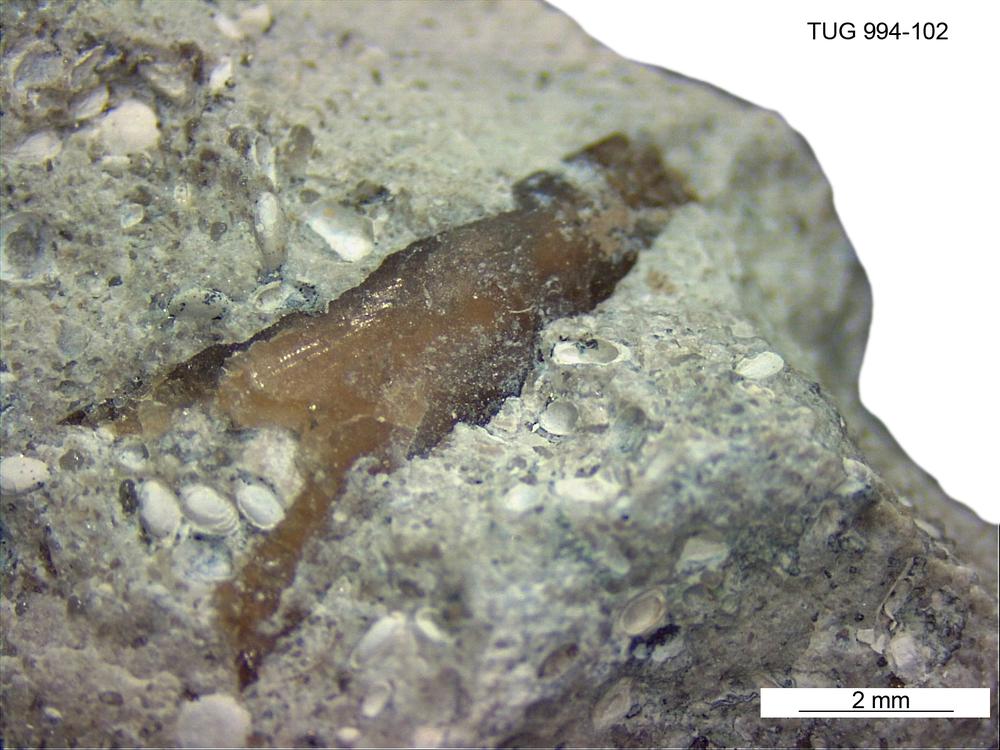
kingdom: Animalia
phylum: Cnidaria
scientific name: Cnidaria
